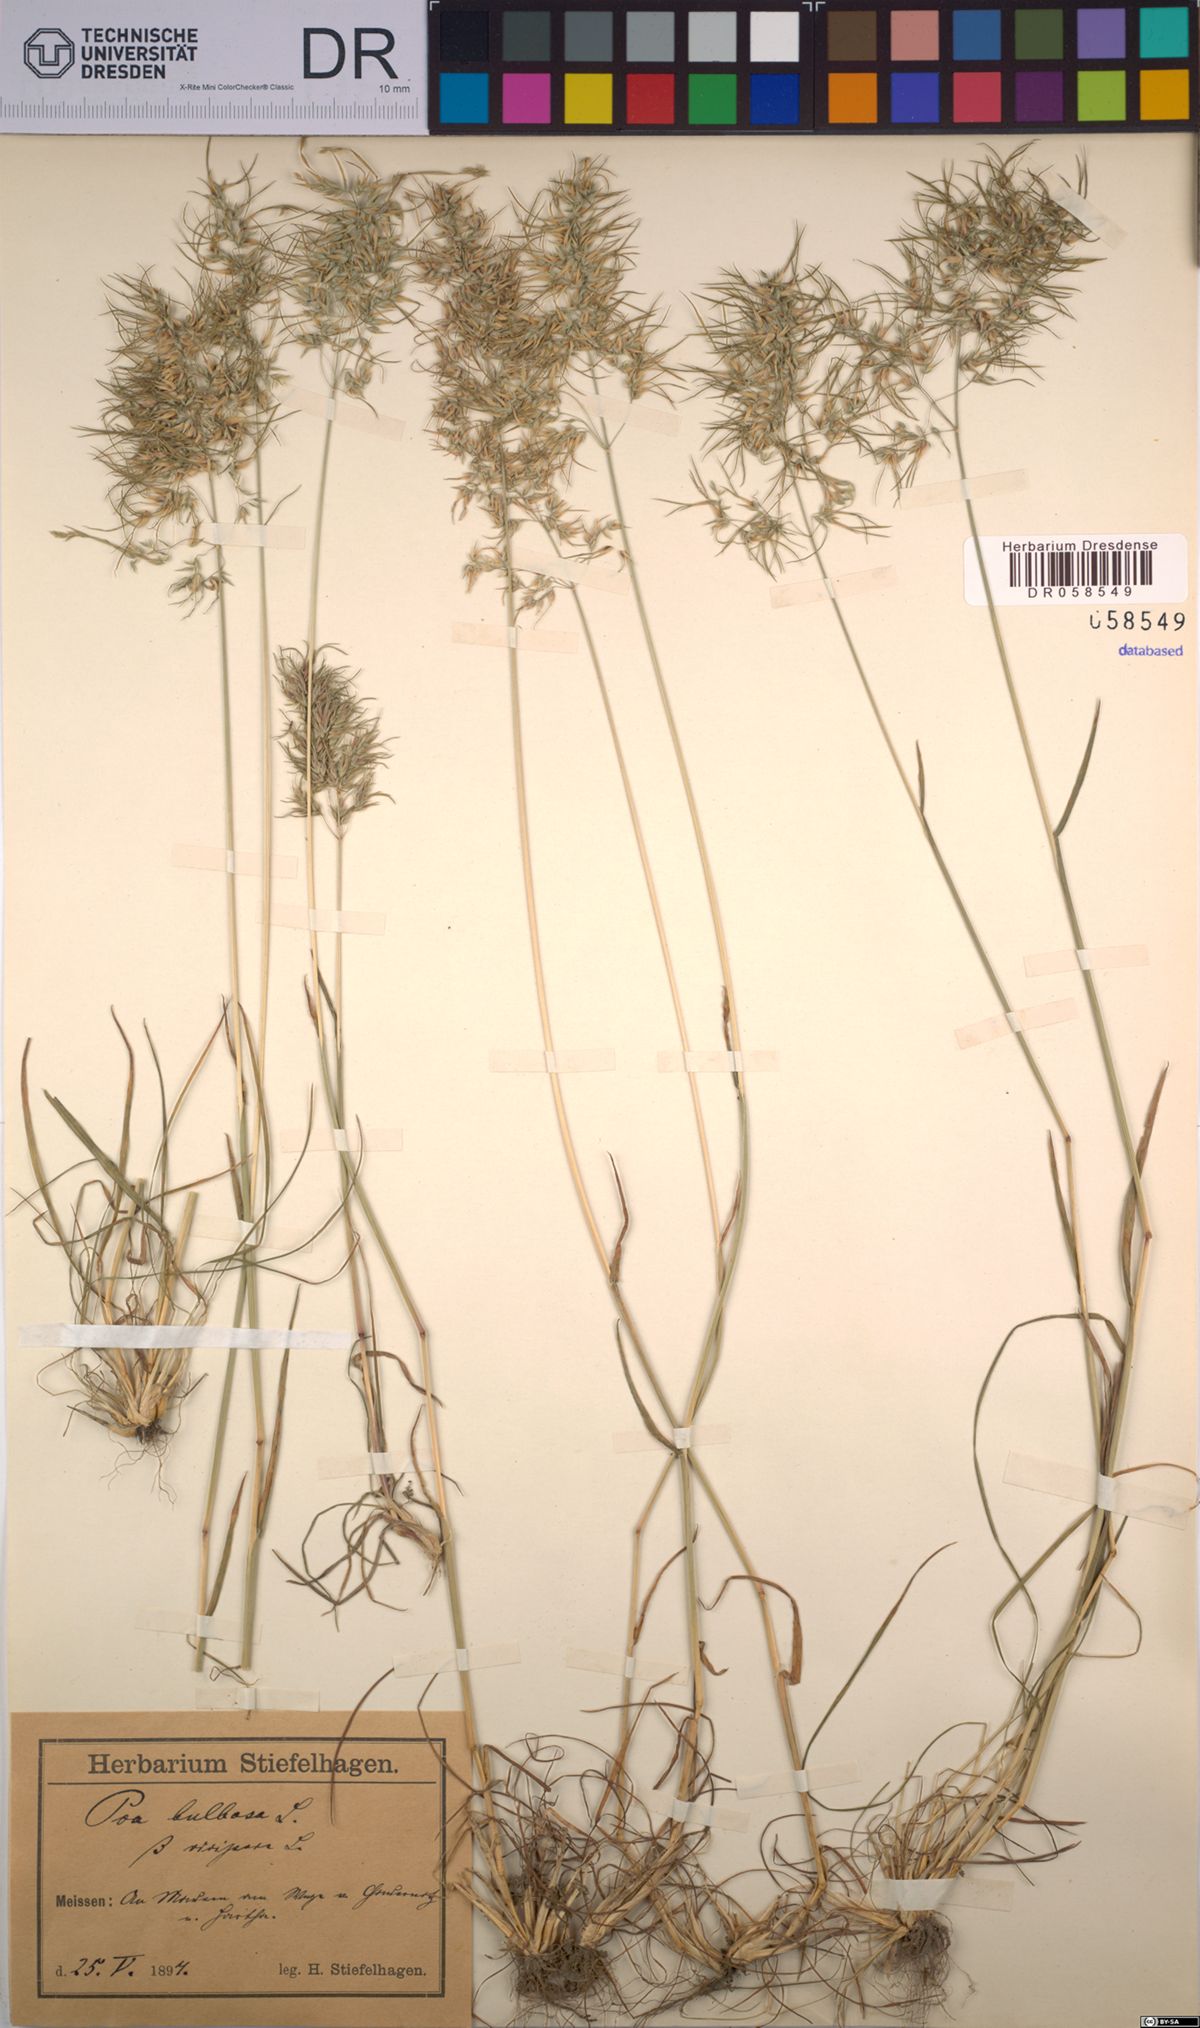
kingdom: Plantae
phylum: Tracheophyta
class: Liliopsida
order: Poales
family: Poaceae
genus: Poa
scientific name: Poa bulbosa
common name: Bulbous bluegrass
